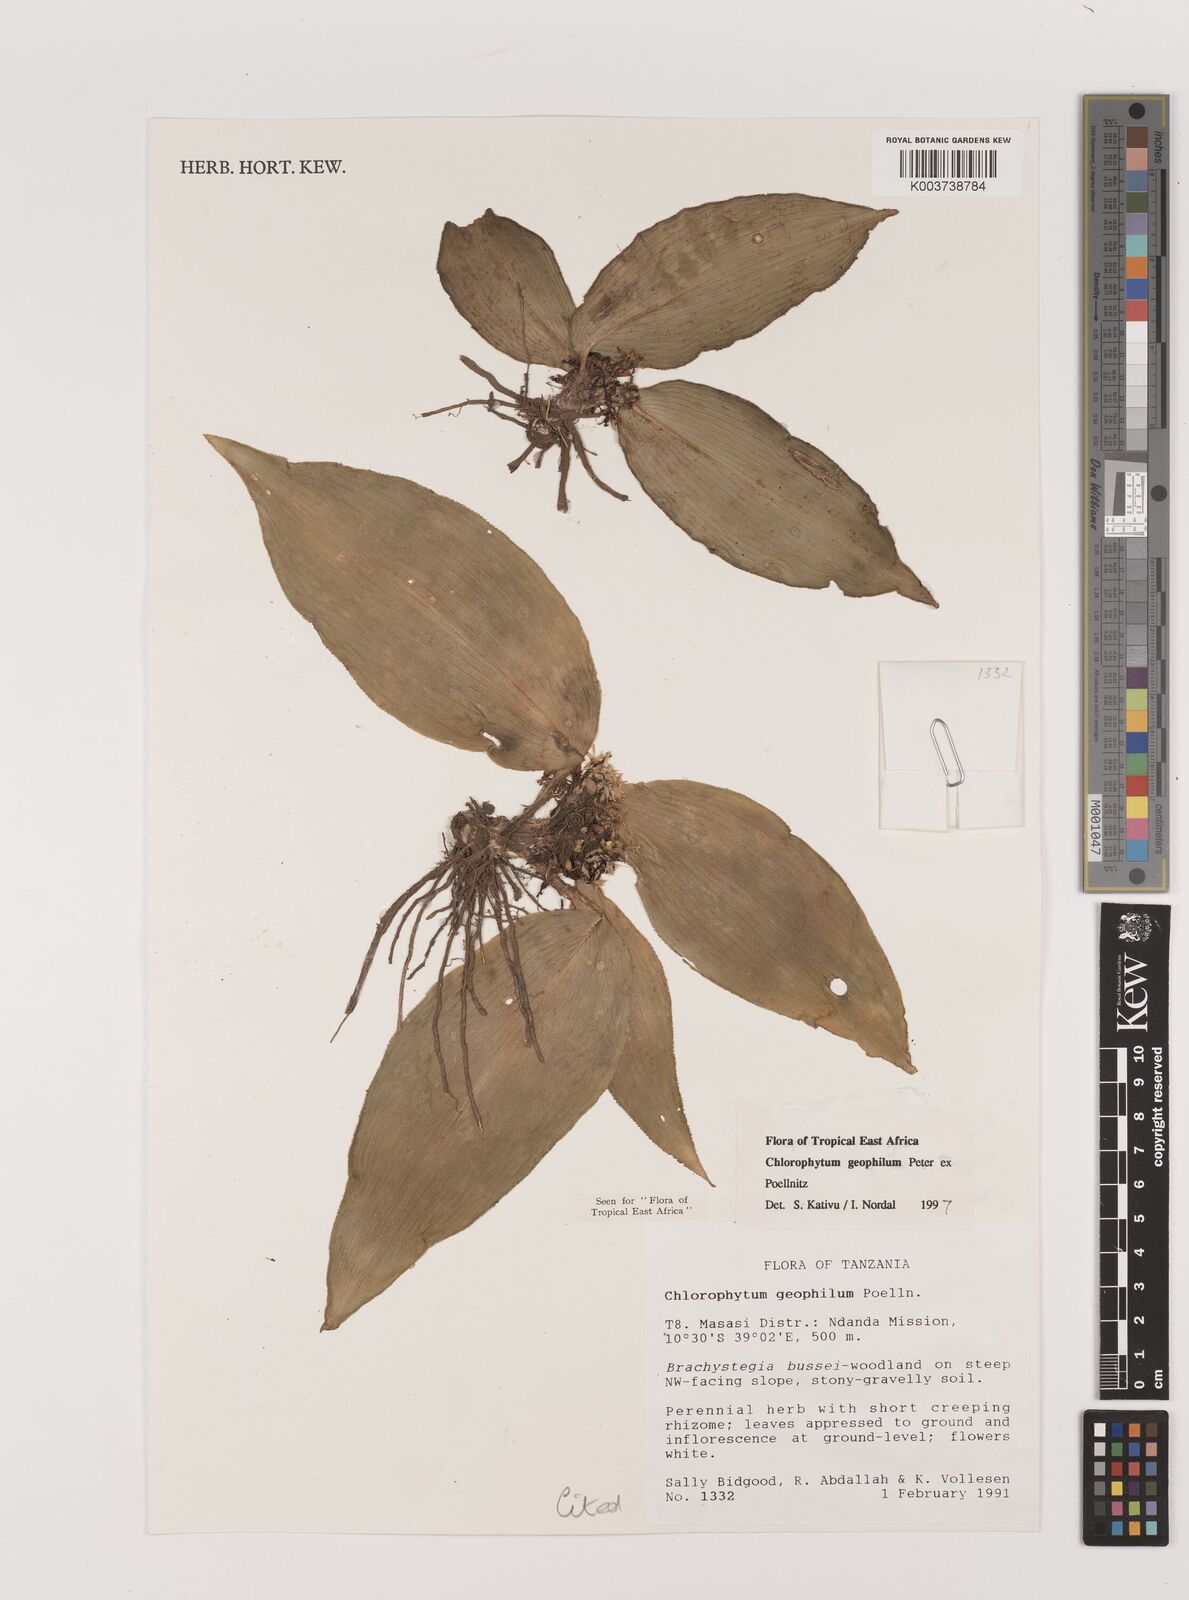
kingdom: Plantae
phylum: Tracheophyta
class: Liliopsida
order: Asparagales
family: Asparagaceae
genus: Chlorophytum
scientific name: Chlorophytum geophilum
